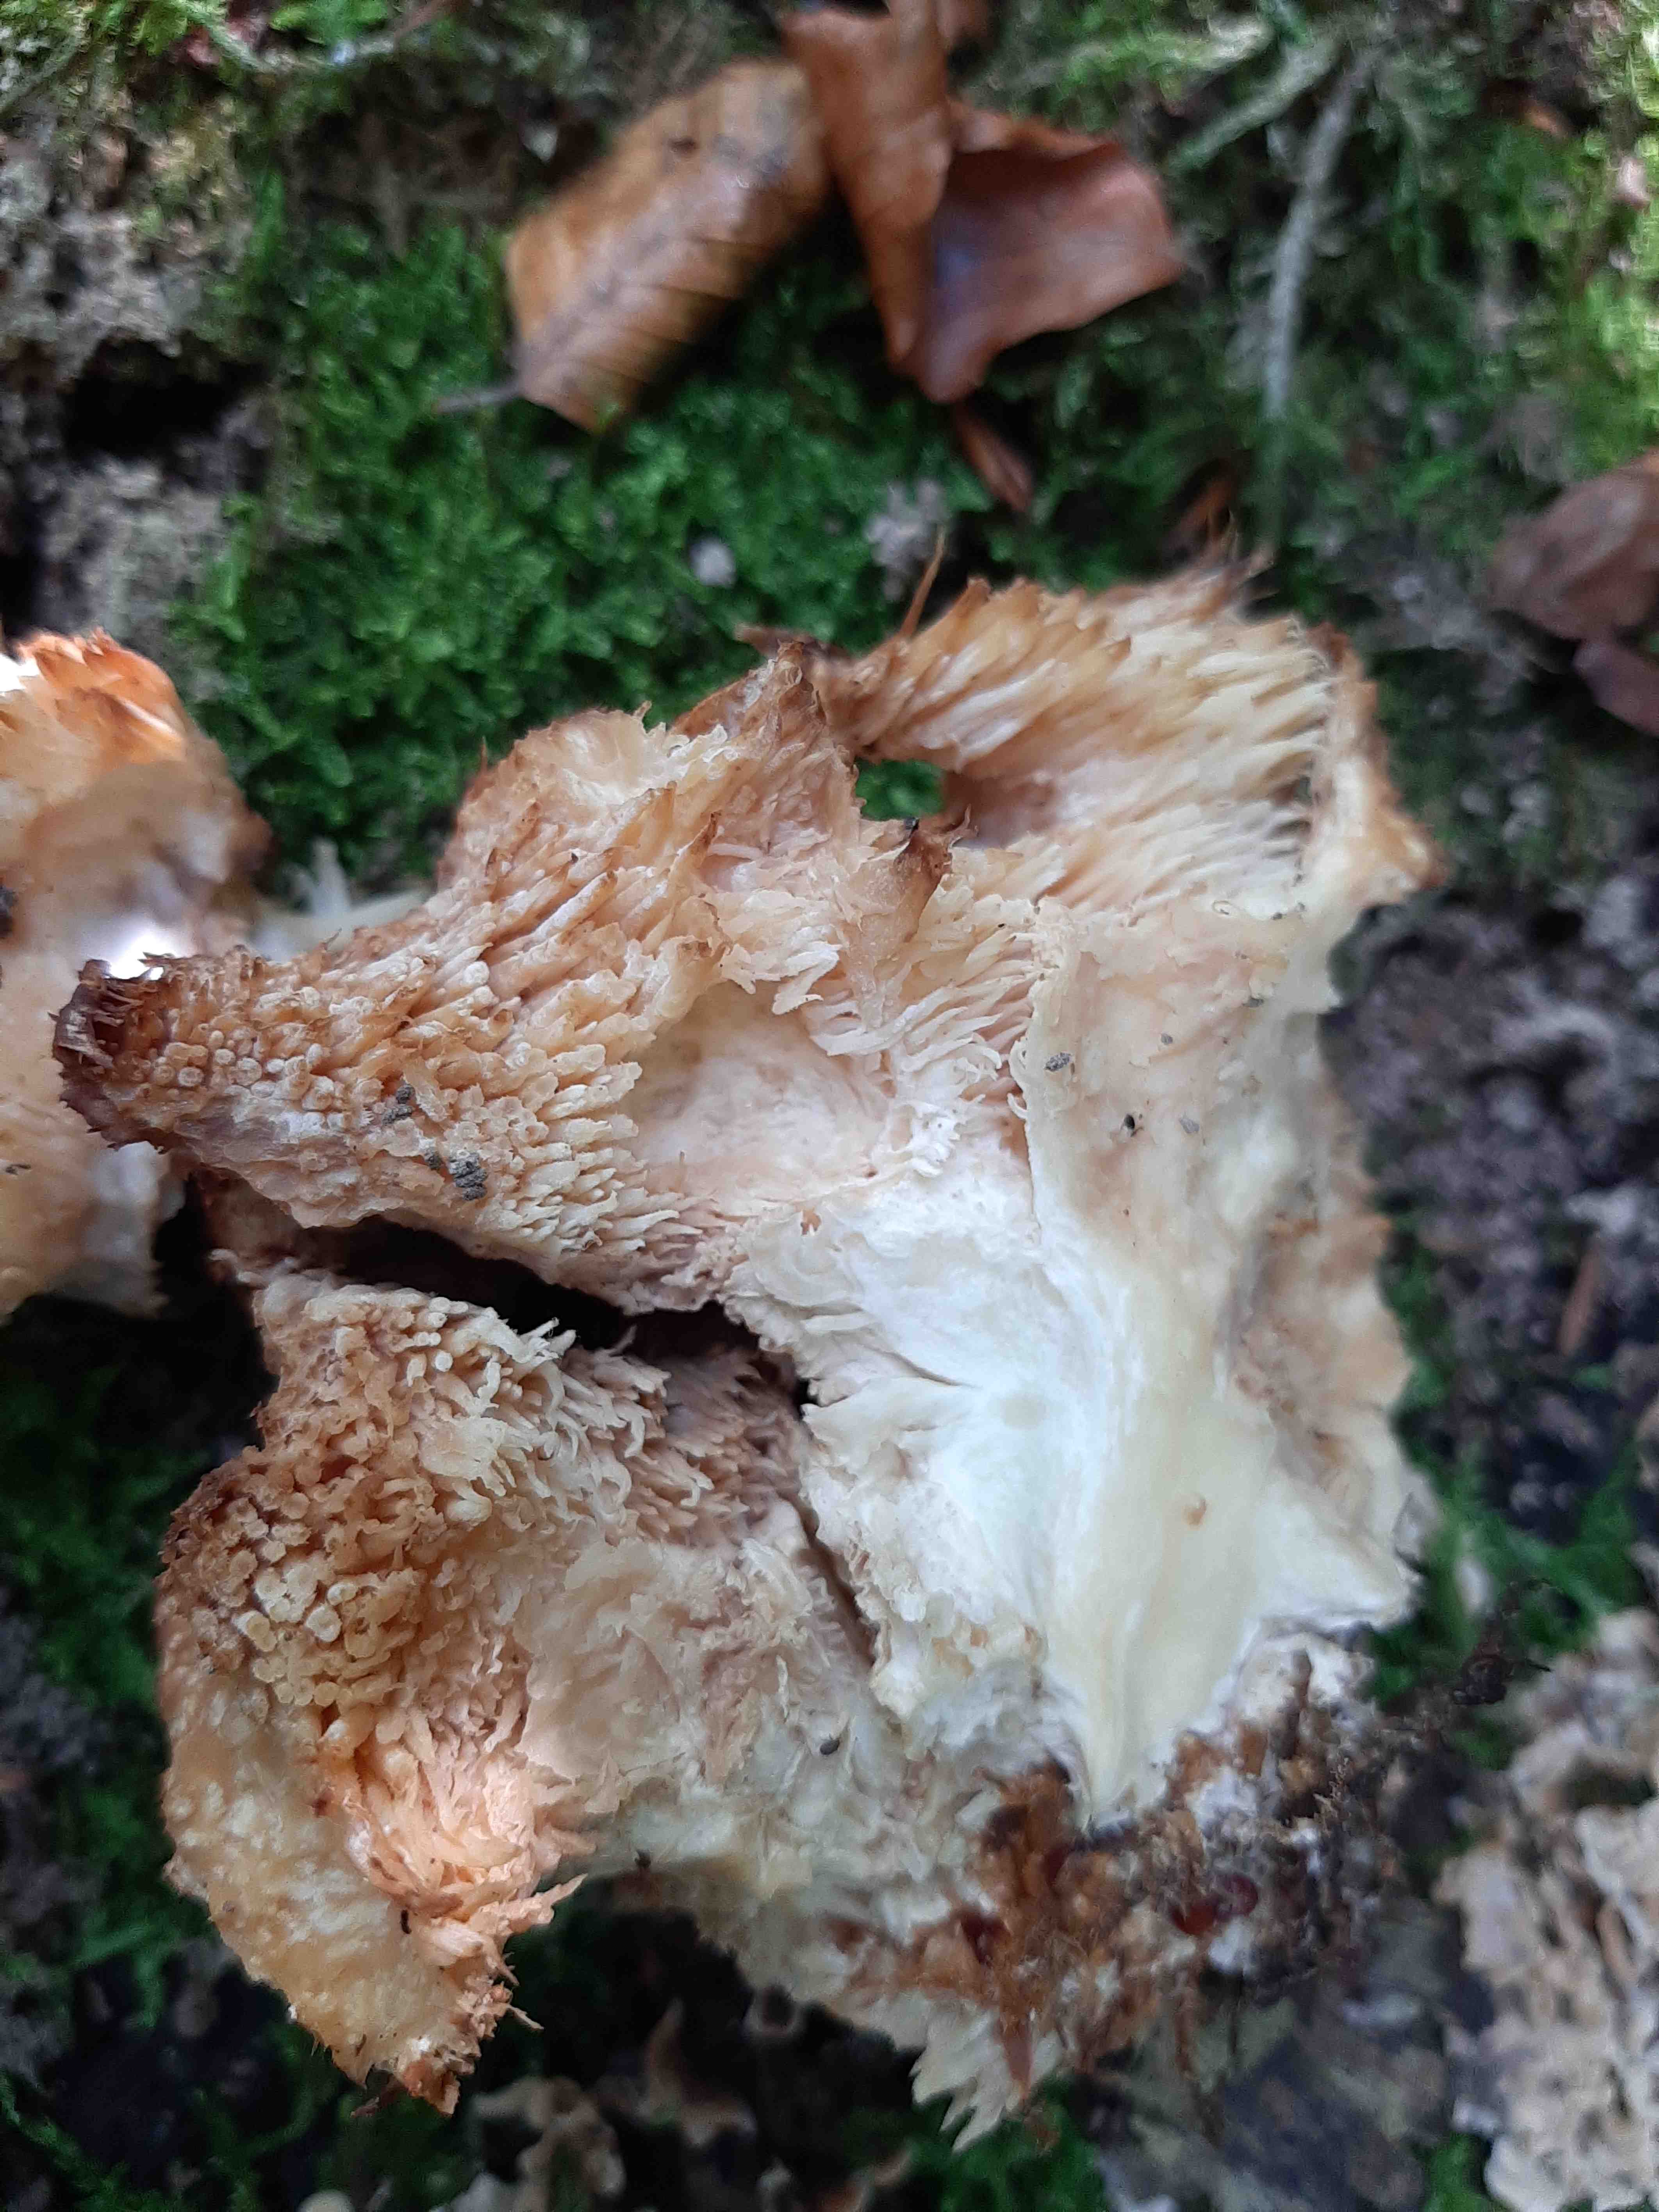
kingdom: Fungi
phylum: Basidiomycota
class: Agaricomycetes
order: Russulales
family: Hericiaceae
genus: Hericium
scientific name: Hericium cirrhatum
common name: børstepigsvamp
